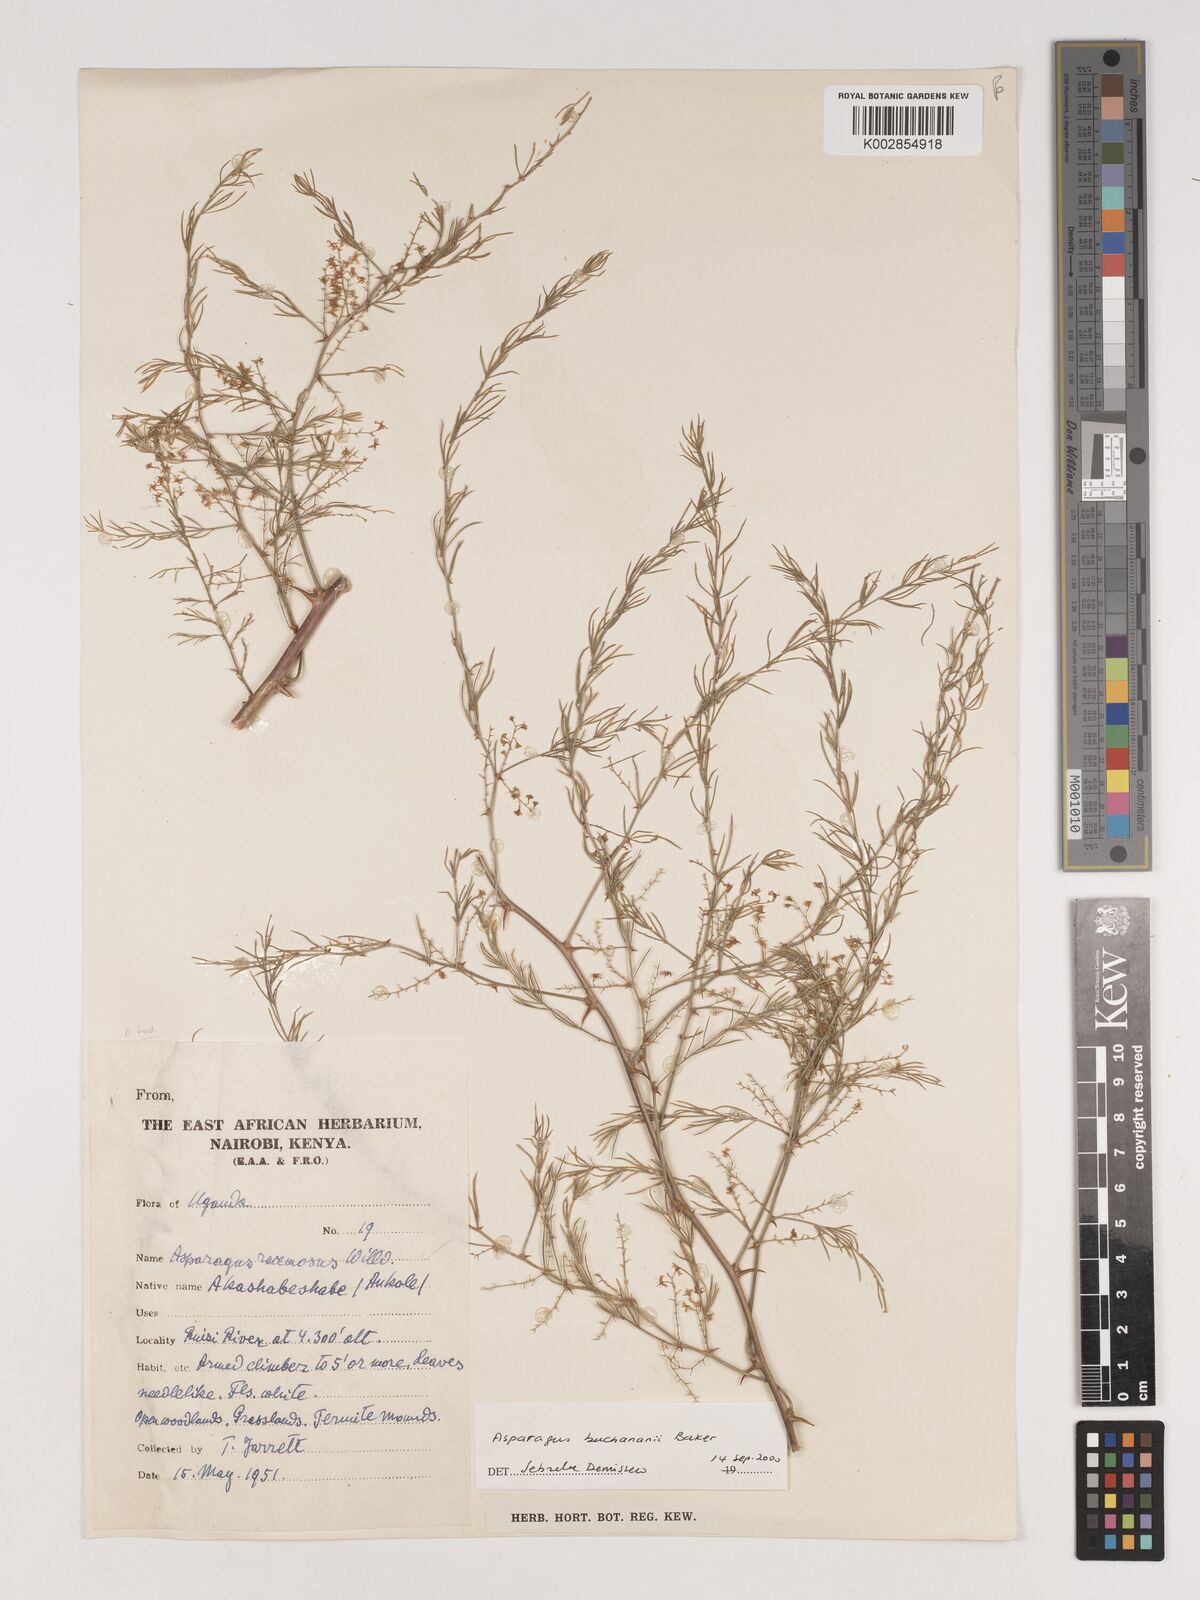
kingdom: Plantae
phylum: Tracheophyta
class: Liliopsida
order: Asparagales
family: Asparagaceae
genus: Asparagus
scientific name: Asparagus buchananii
